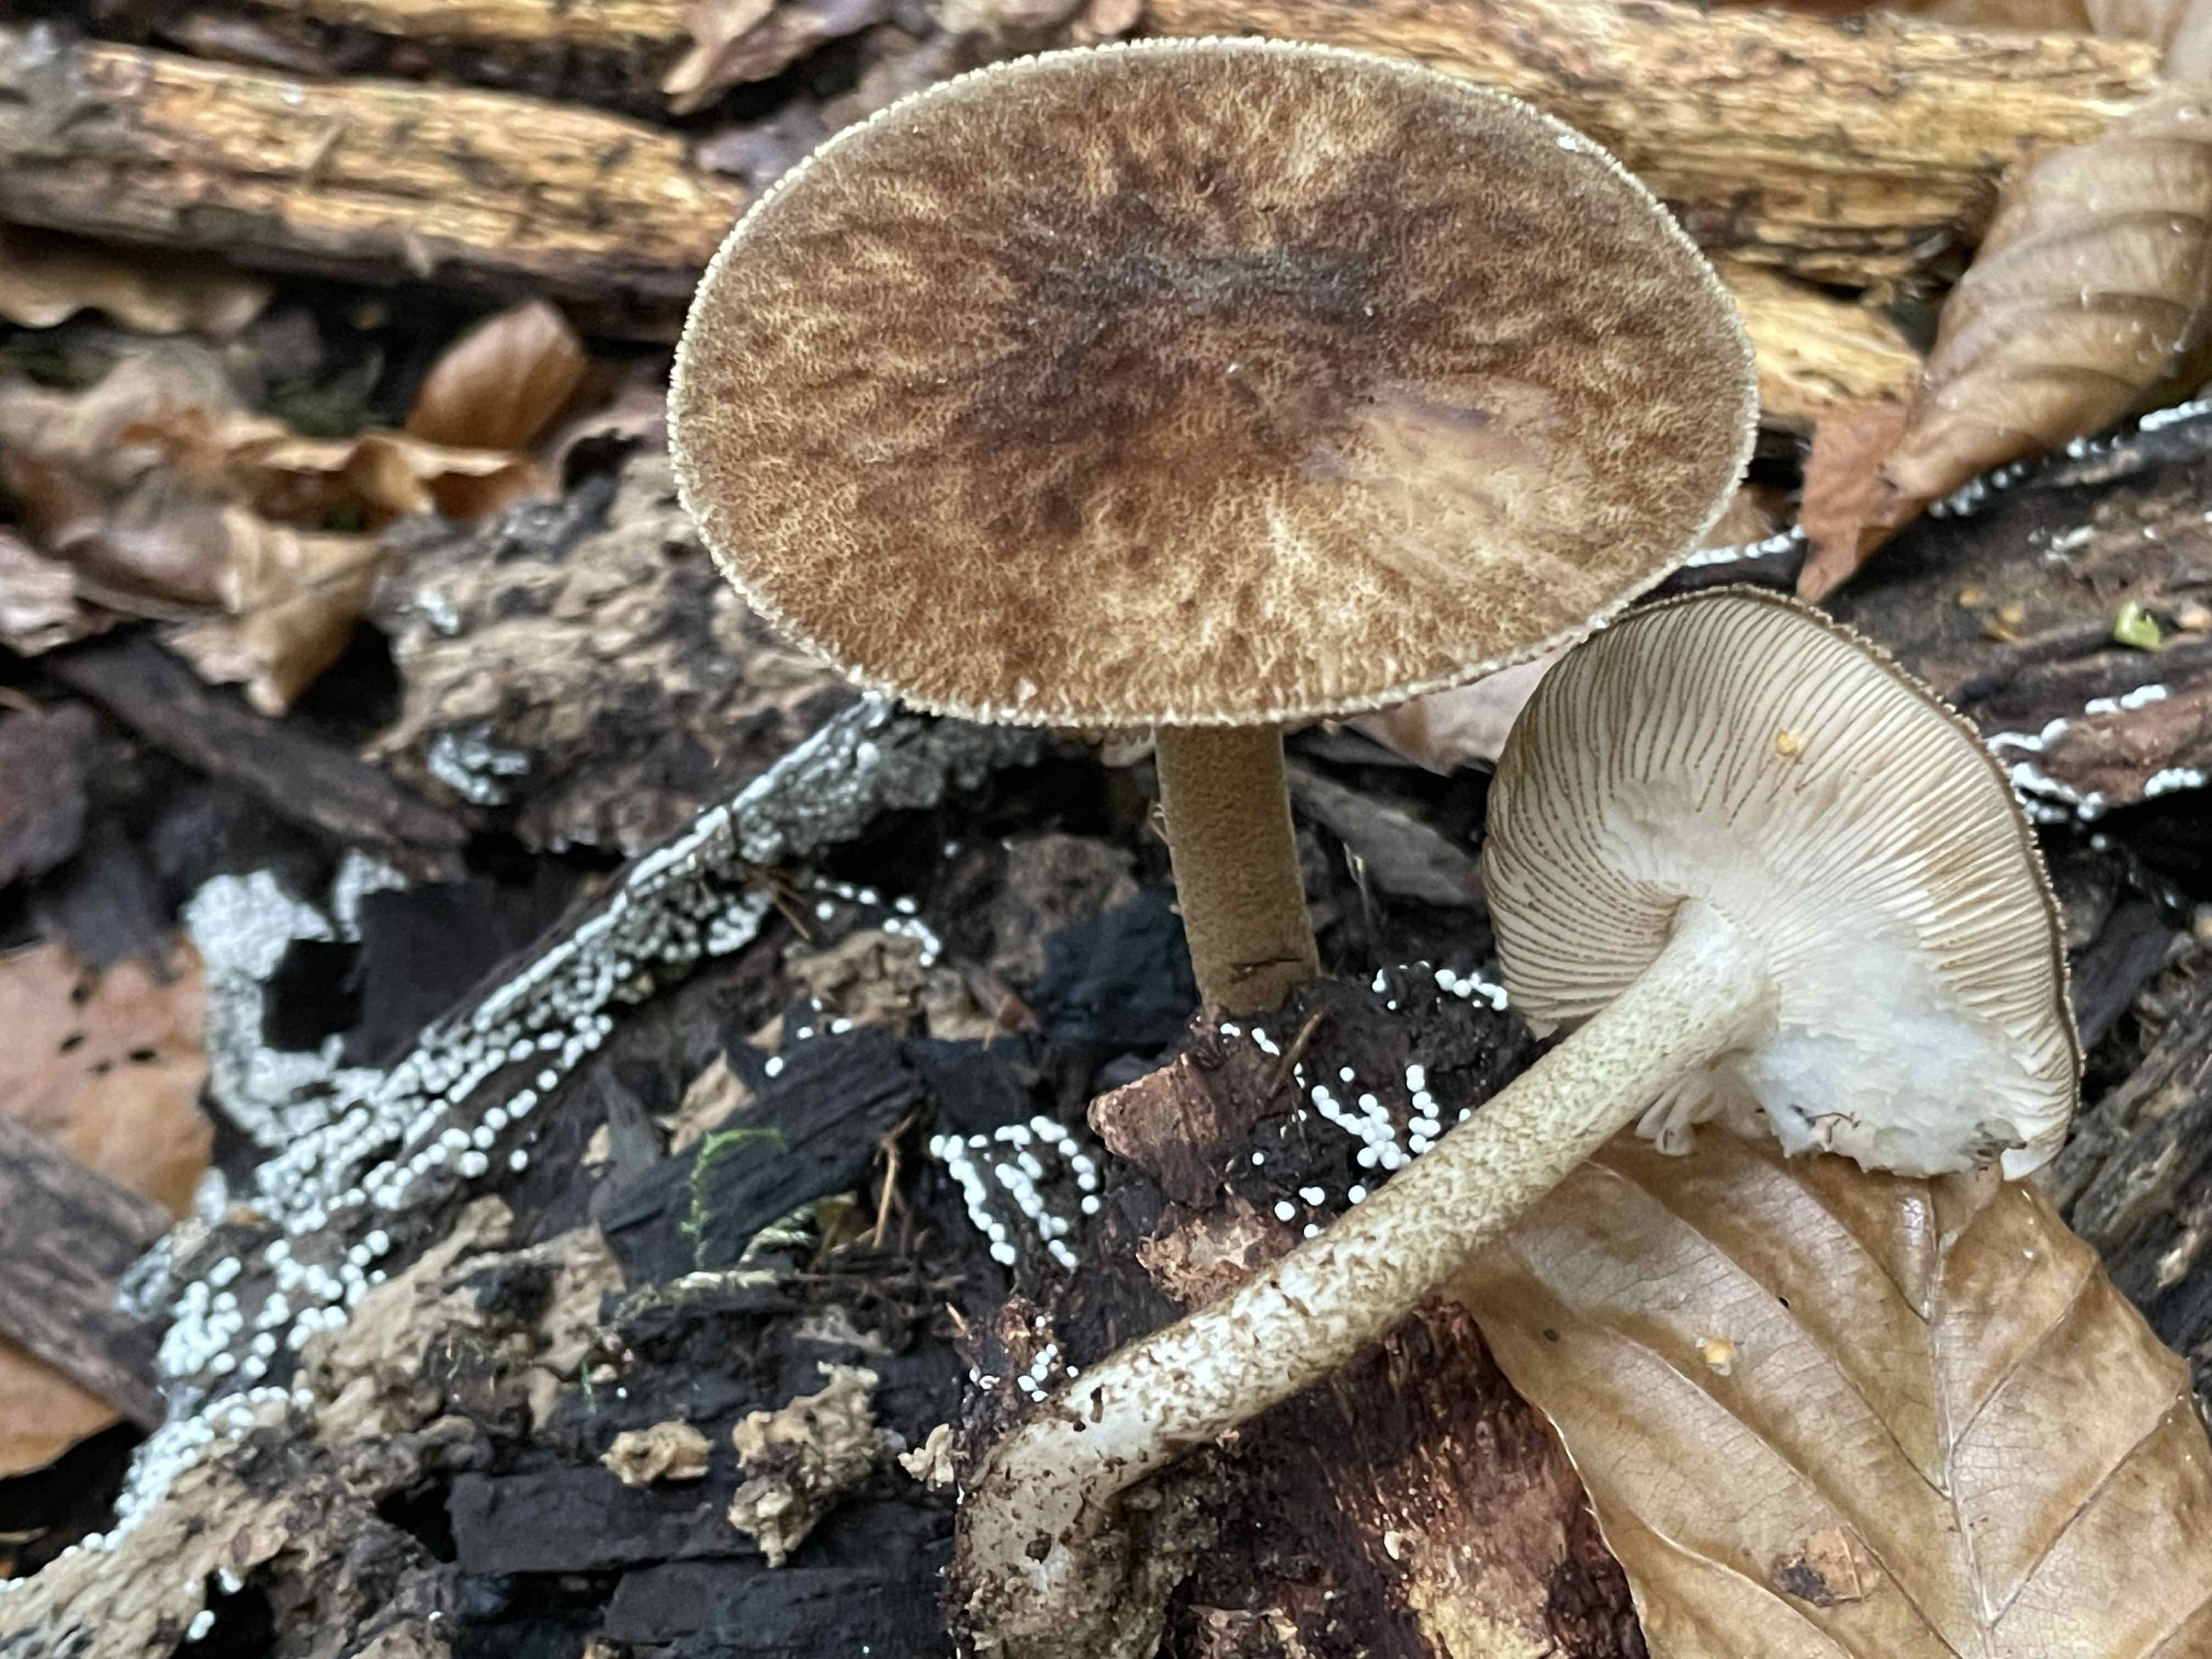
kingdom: Fungi
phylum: Basidiomycota
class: Agaricomycetes
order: Agaricales
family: Pluteaceae
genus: Pluteus
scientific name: Pluteus umbrosus
